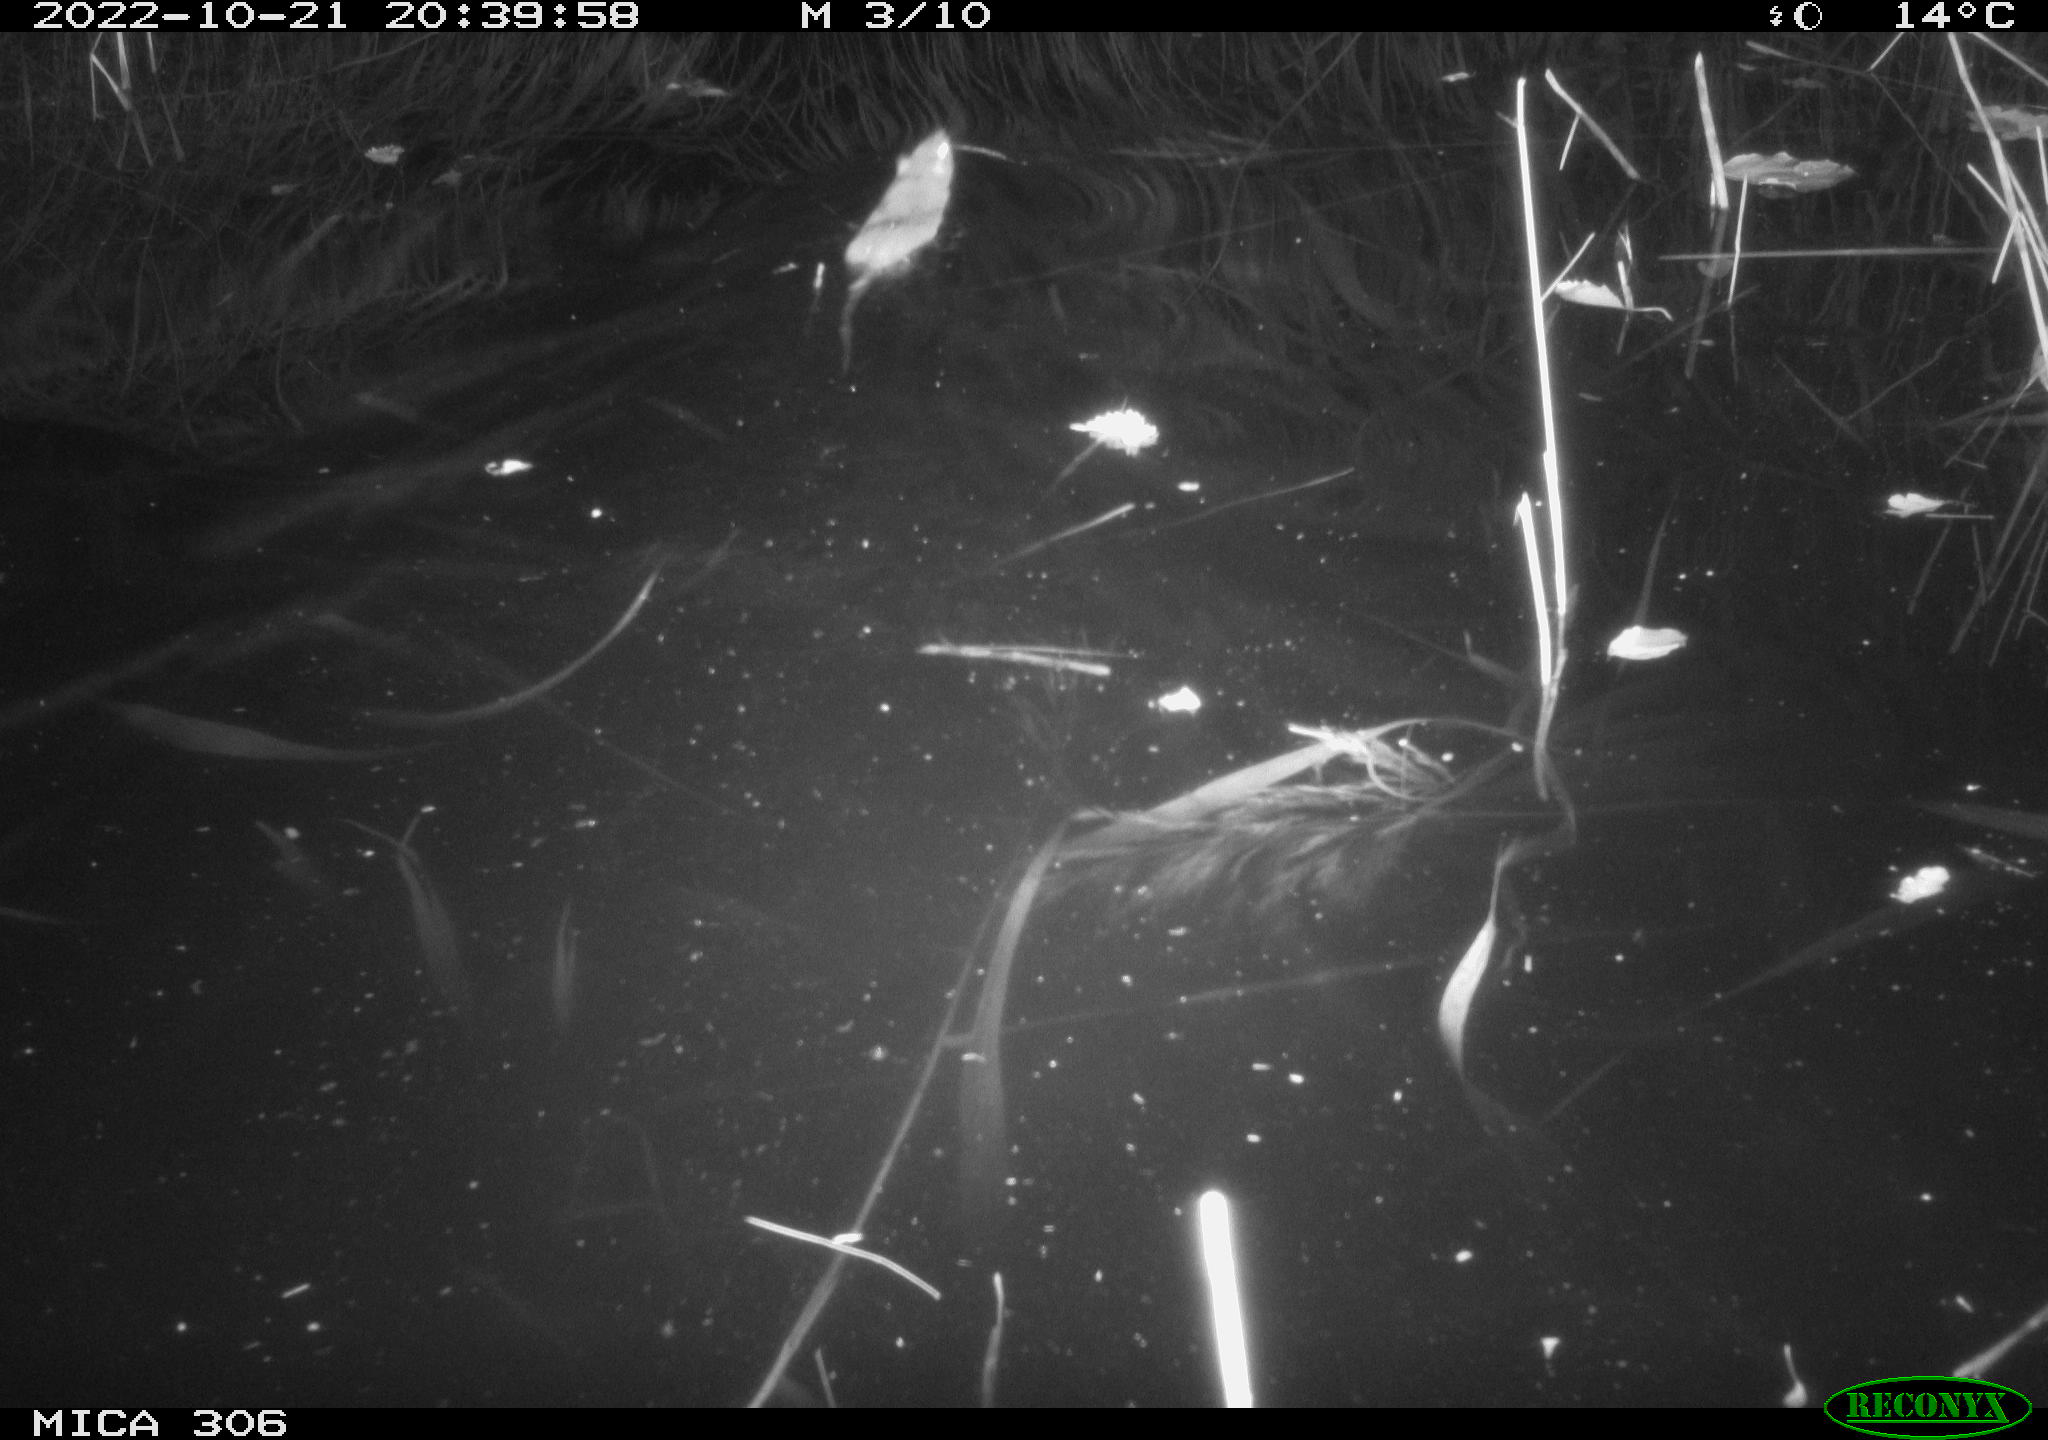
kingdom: Animalia
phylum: Chordata
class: Mammalia
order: Rodentia
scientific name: Rodentia
